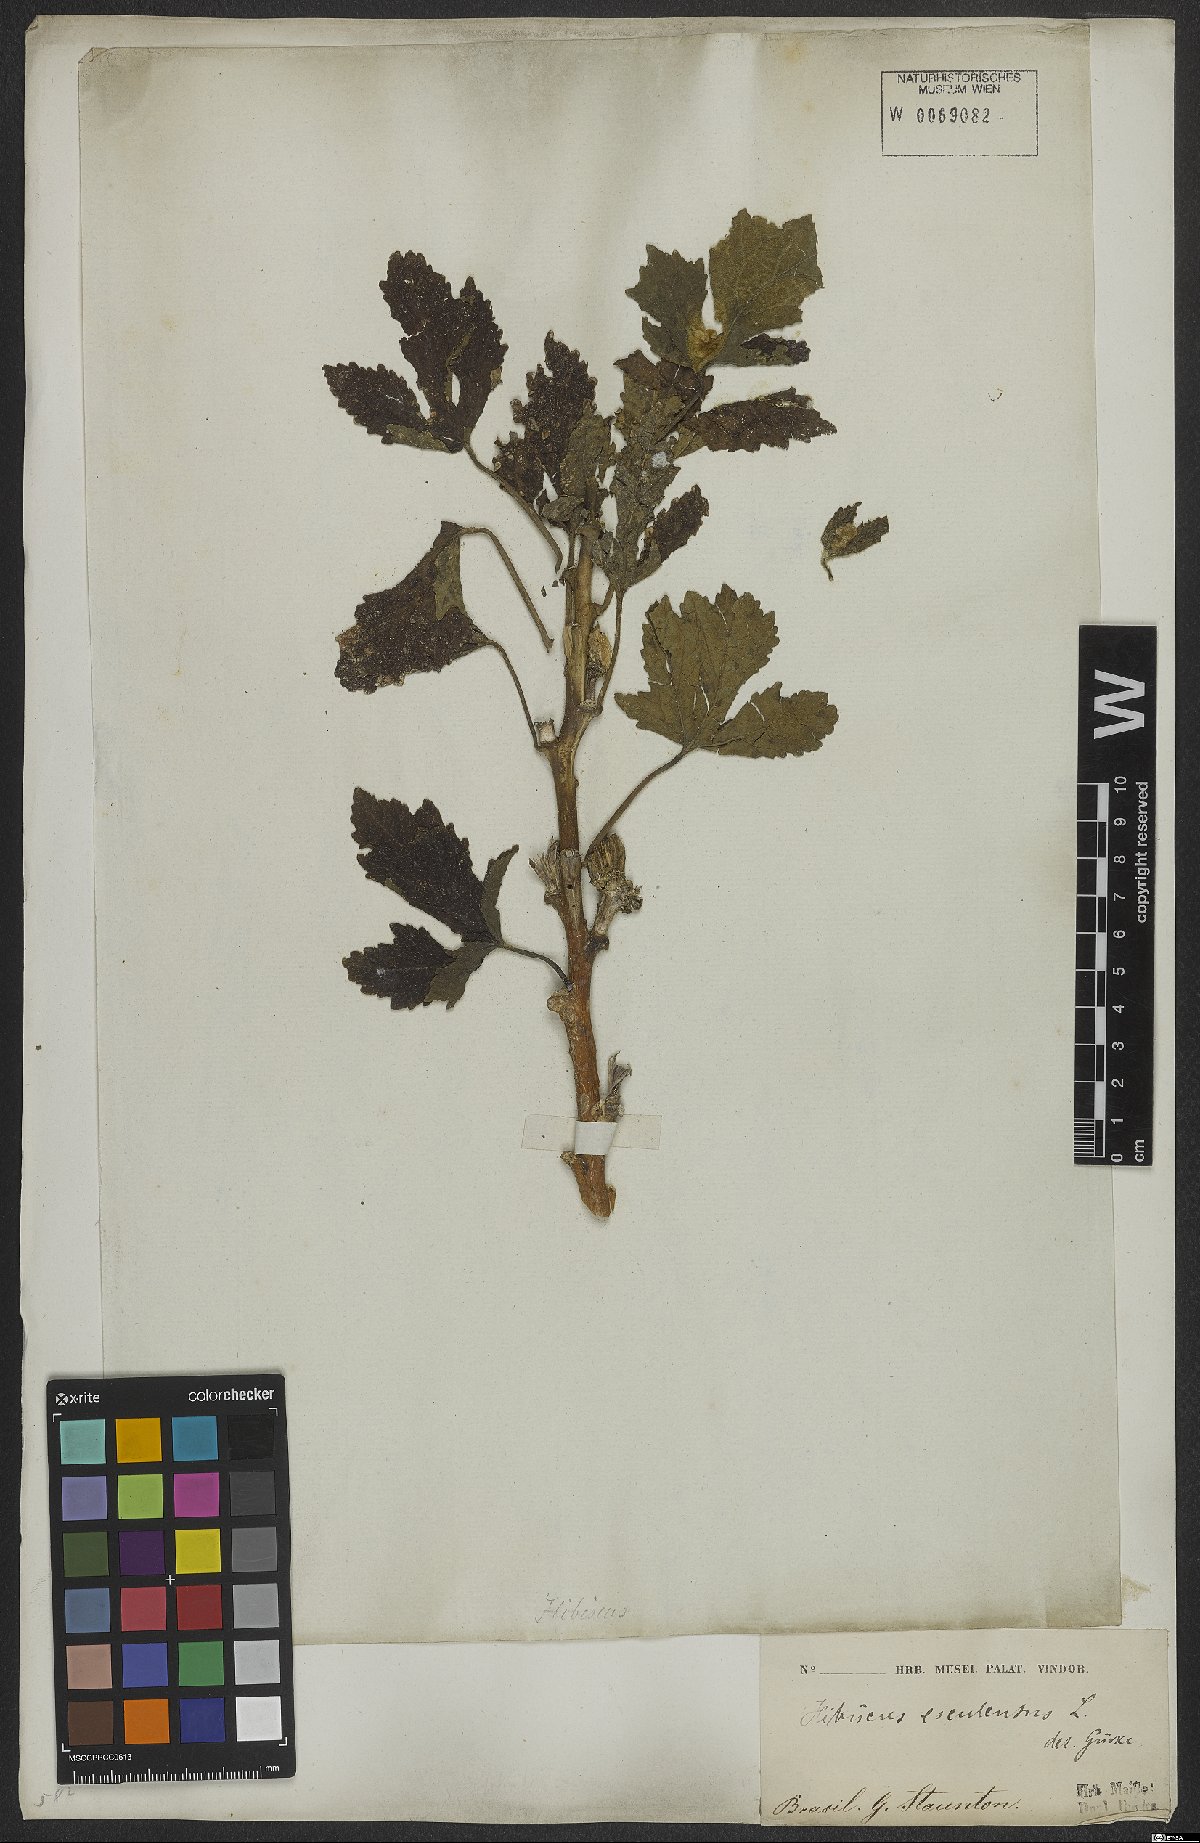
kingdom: Plantae
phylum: Tracheophyta
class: Magnoliopsida
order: Malvales
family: Malvaceae
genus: Abelmoschus
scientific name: Abelmoschus esculentus
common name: Okra
